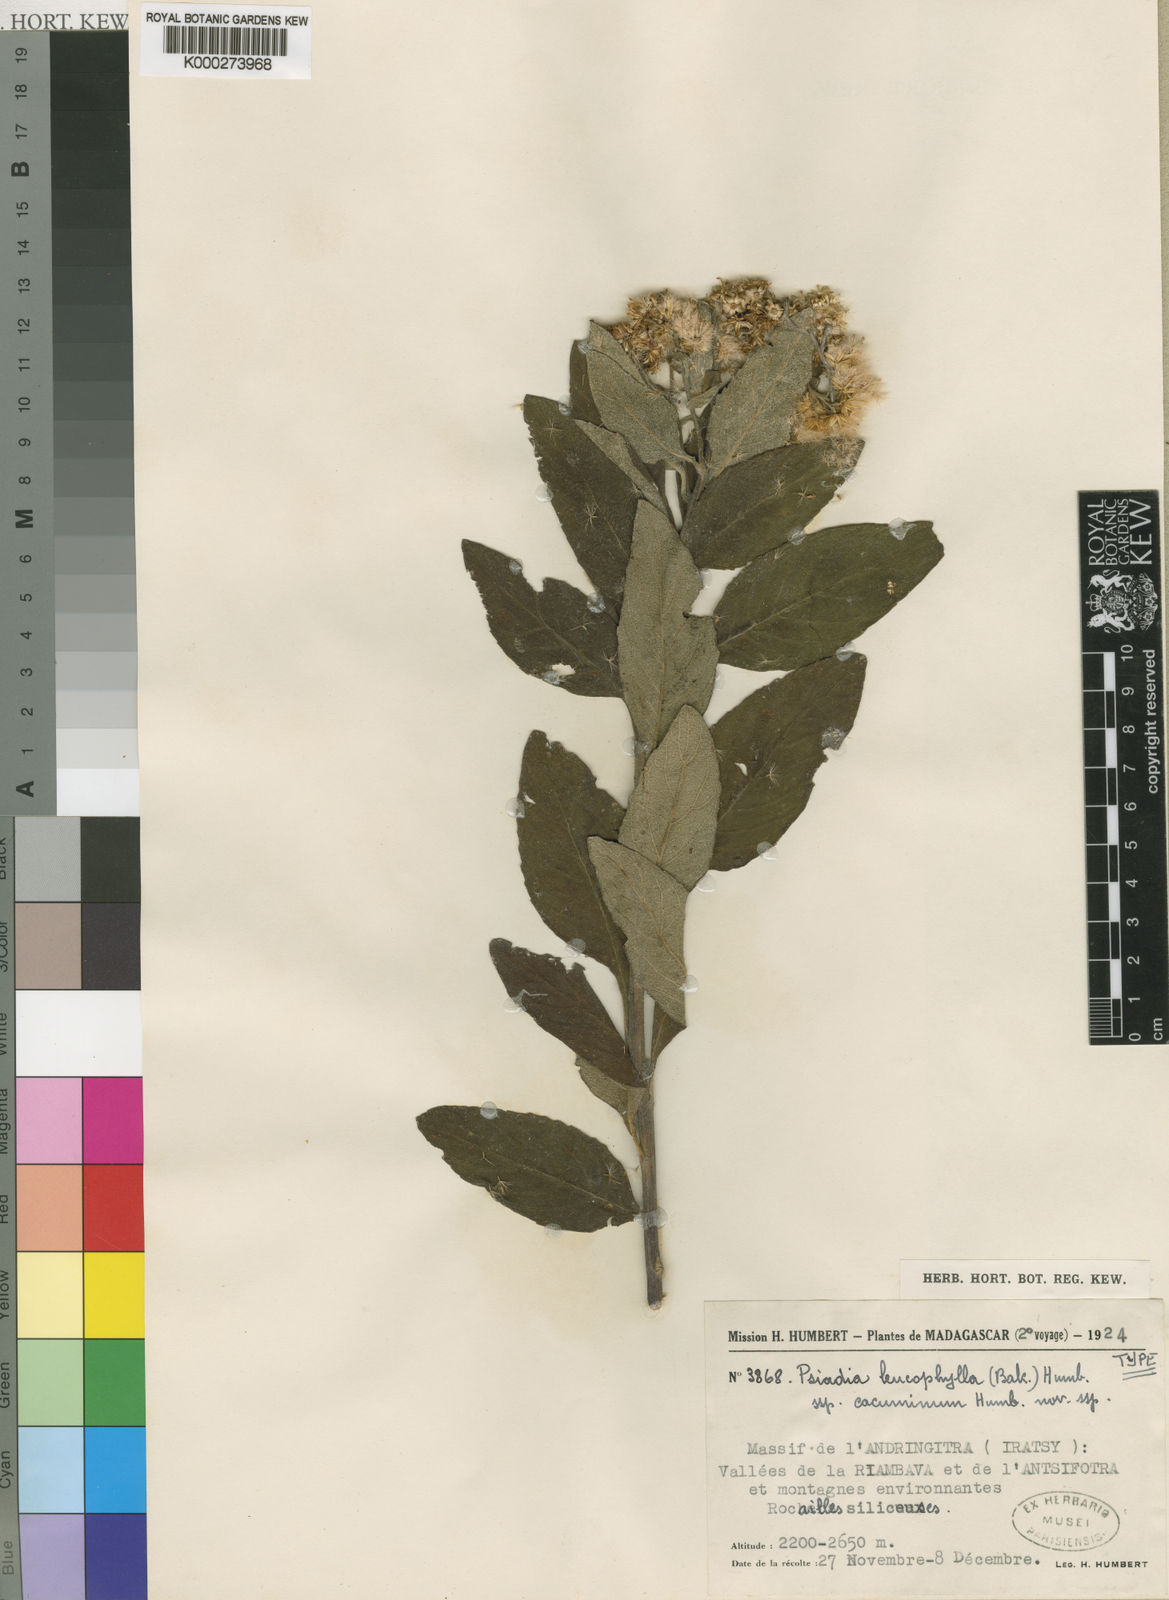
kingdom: Plantae
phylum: Tracheophyta
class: Magnoliopsida
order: Asterales
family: Asteraceae
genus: Psiadia
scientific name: Psiadia leucophylla
